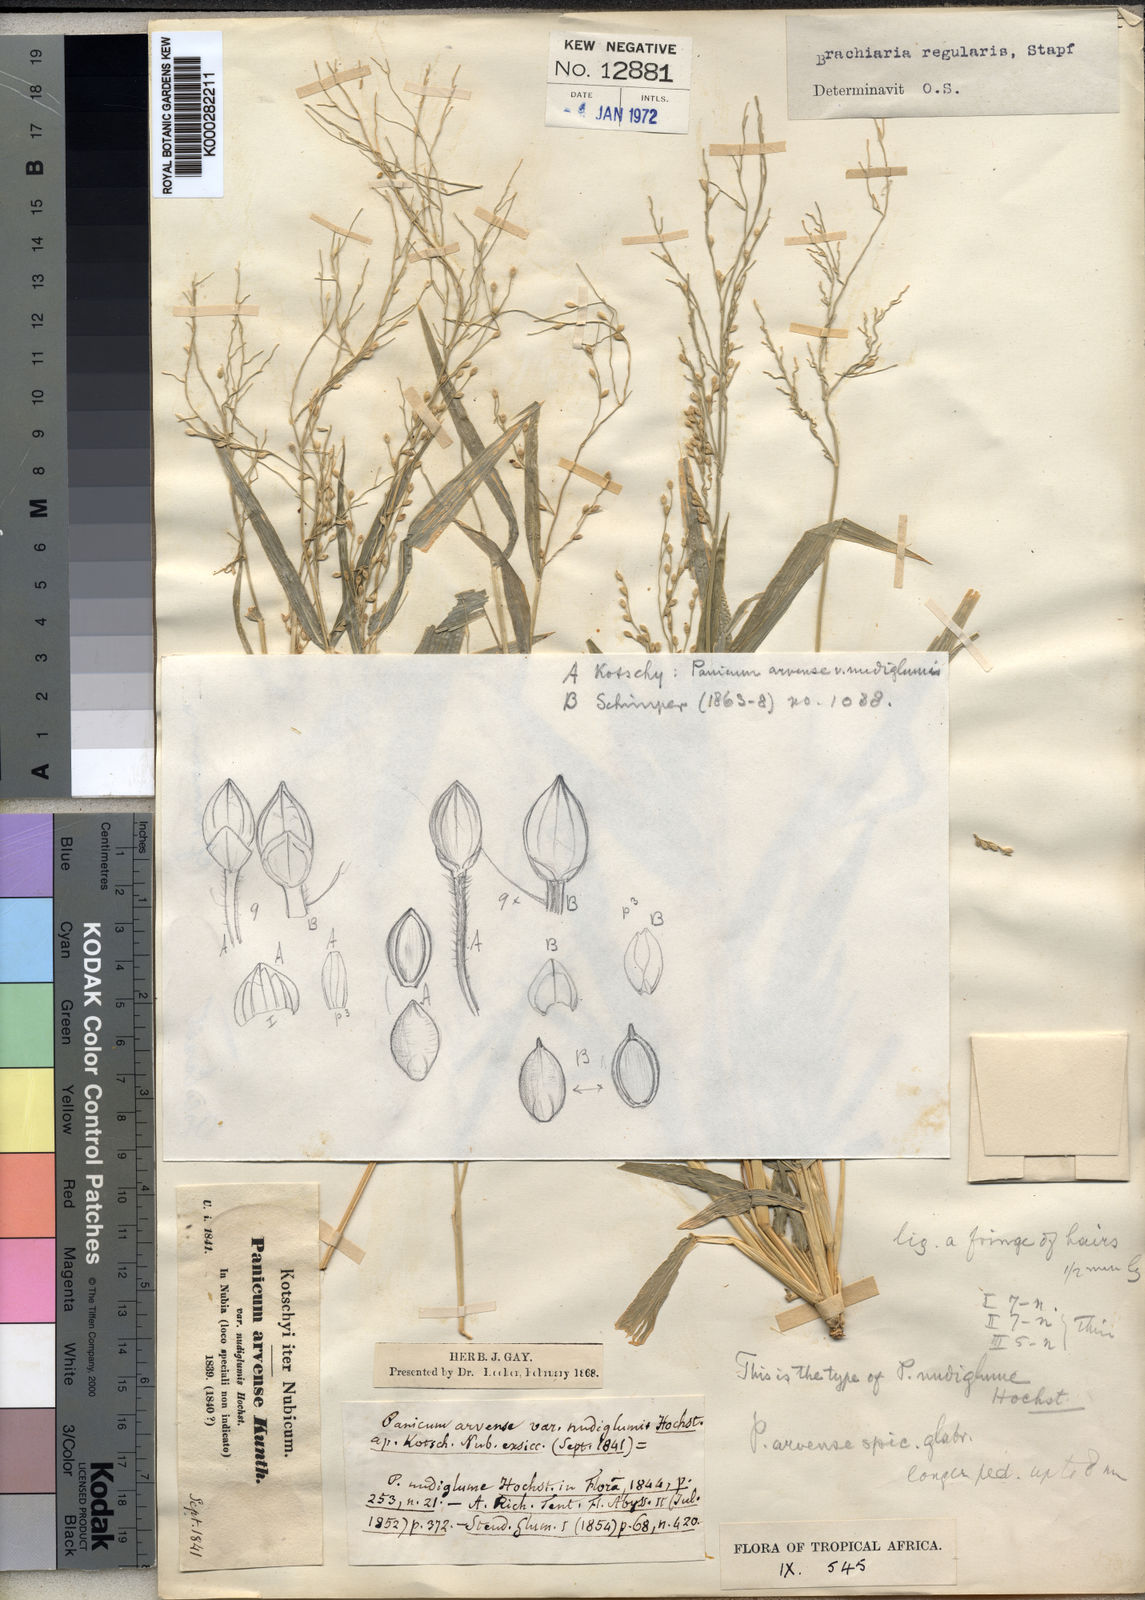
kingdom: Plantae
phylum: Tracheophyta
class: Liliopsida
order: Poales
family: Poaceae
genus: Urochloa
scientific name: Urochloa deflexa
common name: Guinea millet
